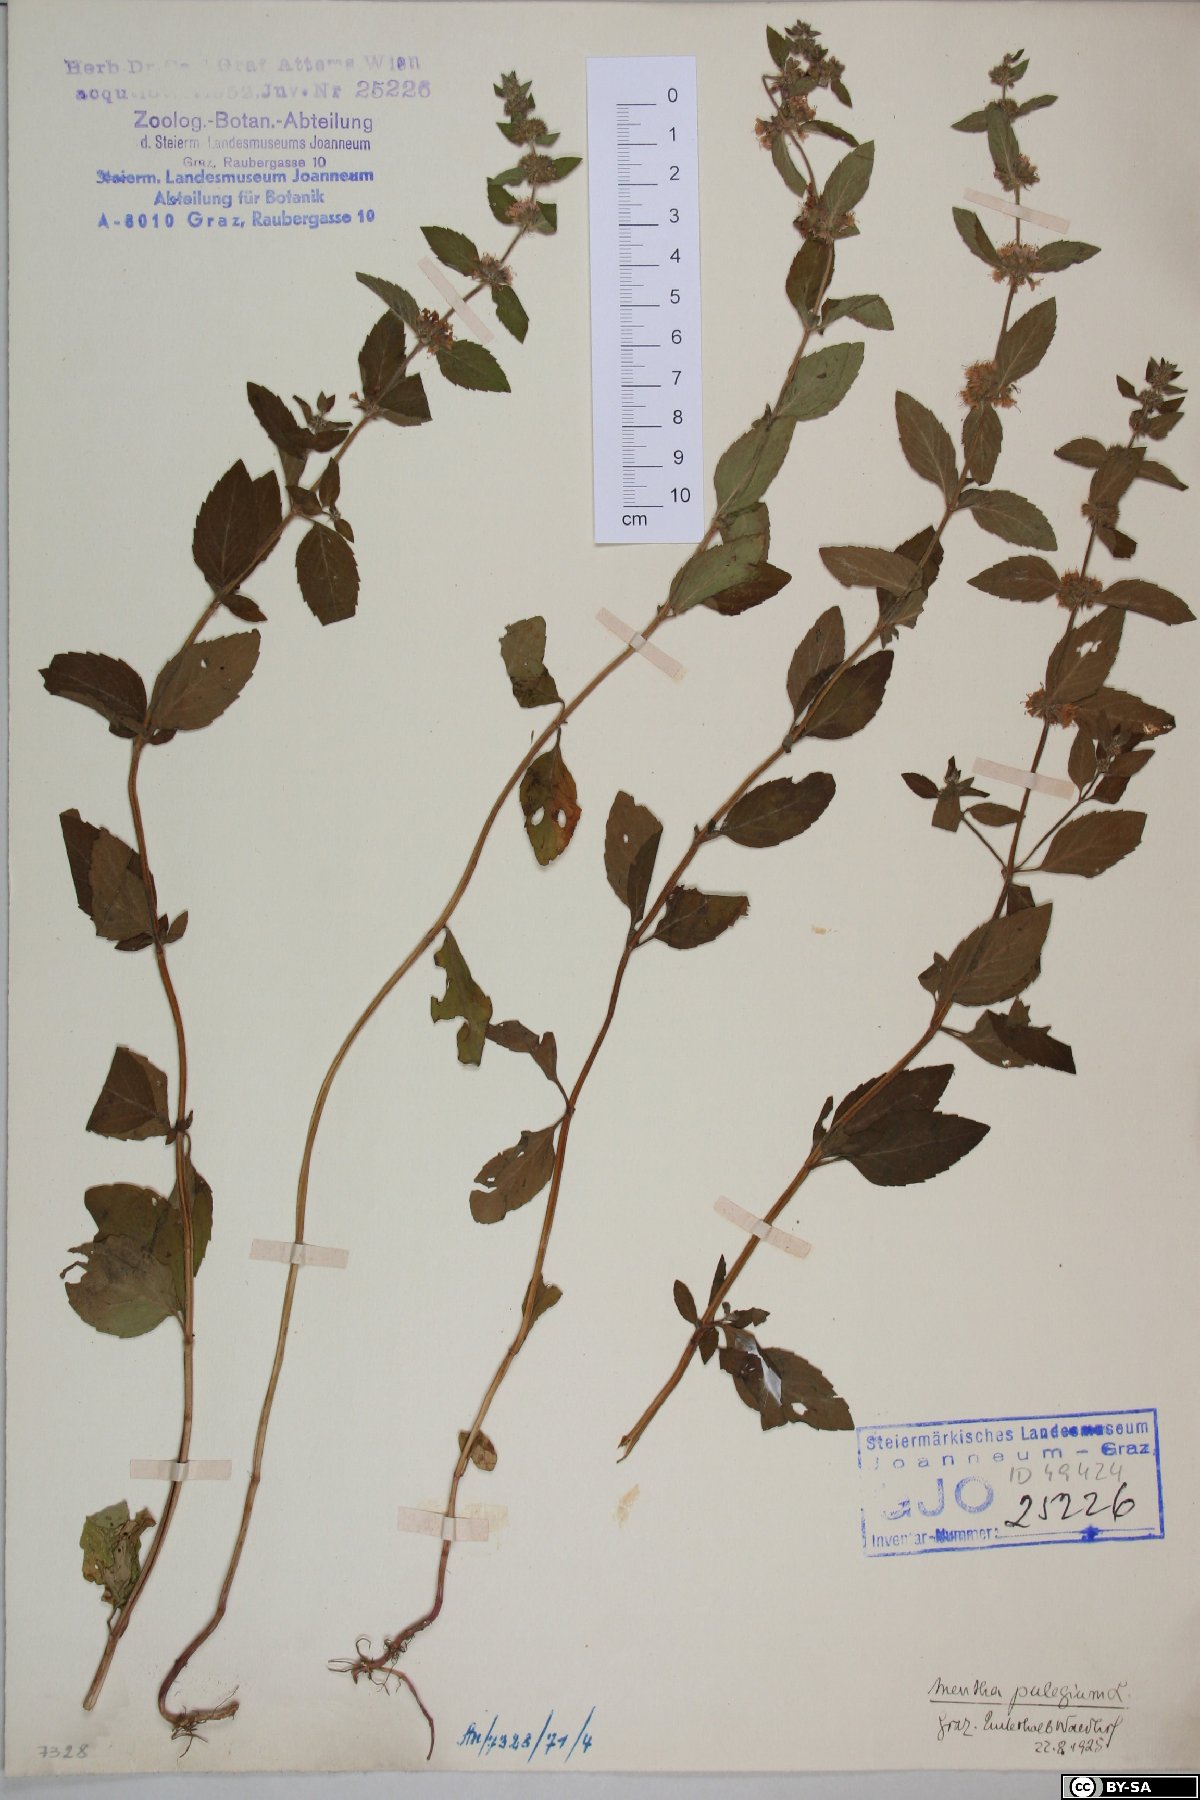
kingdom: Plantae
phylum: Tracheophyta
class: Magnoliopsida
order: Lamiales
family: Lamiaceae
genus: Mentha
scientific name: Mentha pulegium
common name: Pennyroyal
